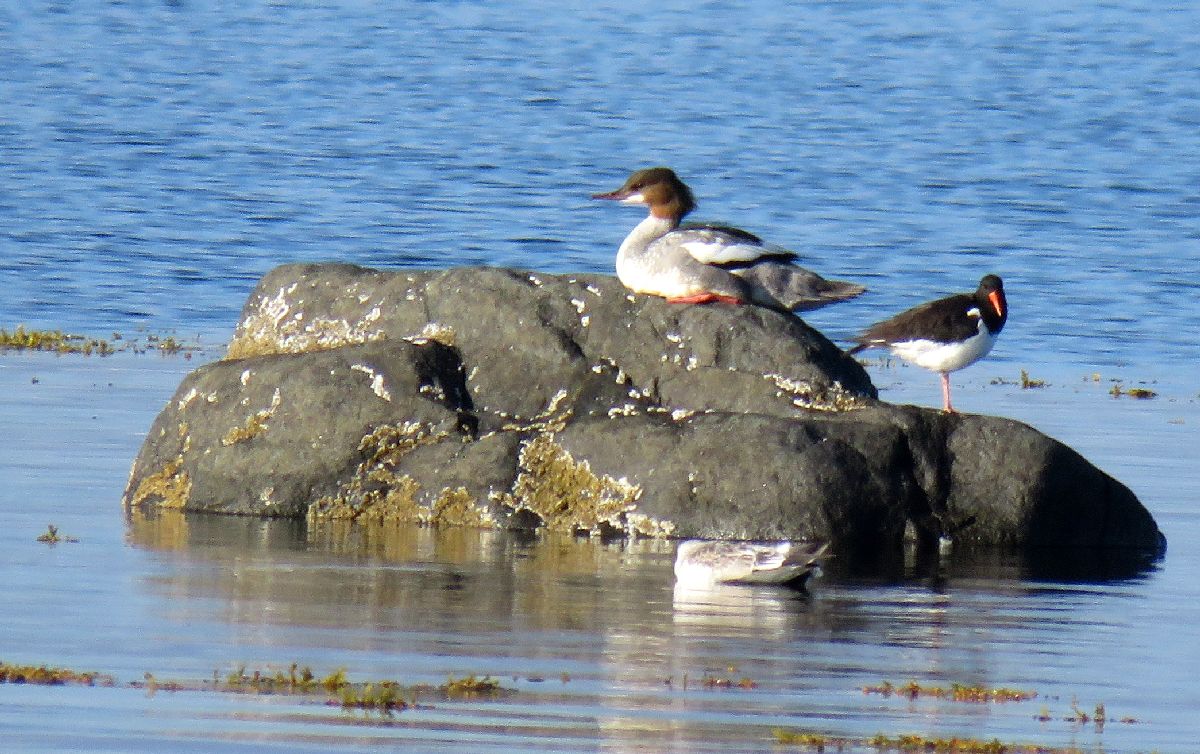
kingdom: Animalia
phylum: Chordata
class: Aves
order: Anseriformes
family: Anatidae
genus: Mergus
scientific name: Mergus merganser
